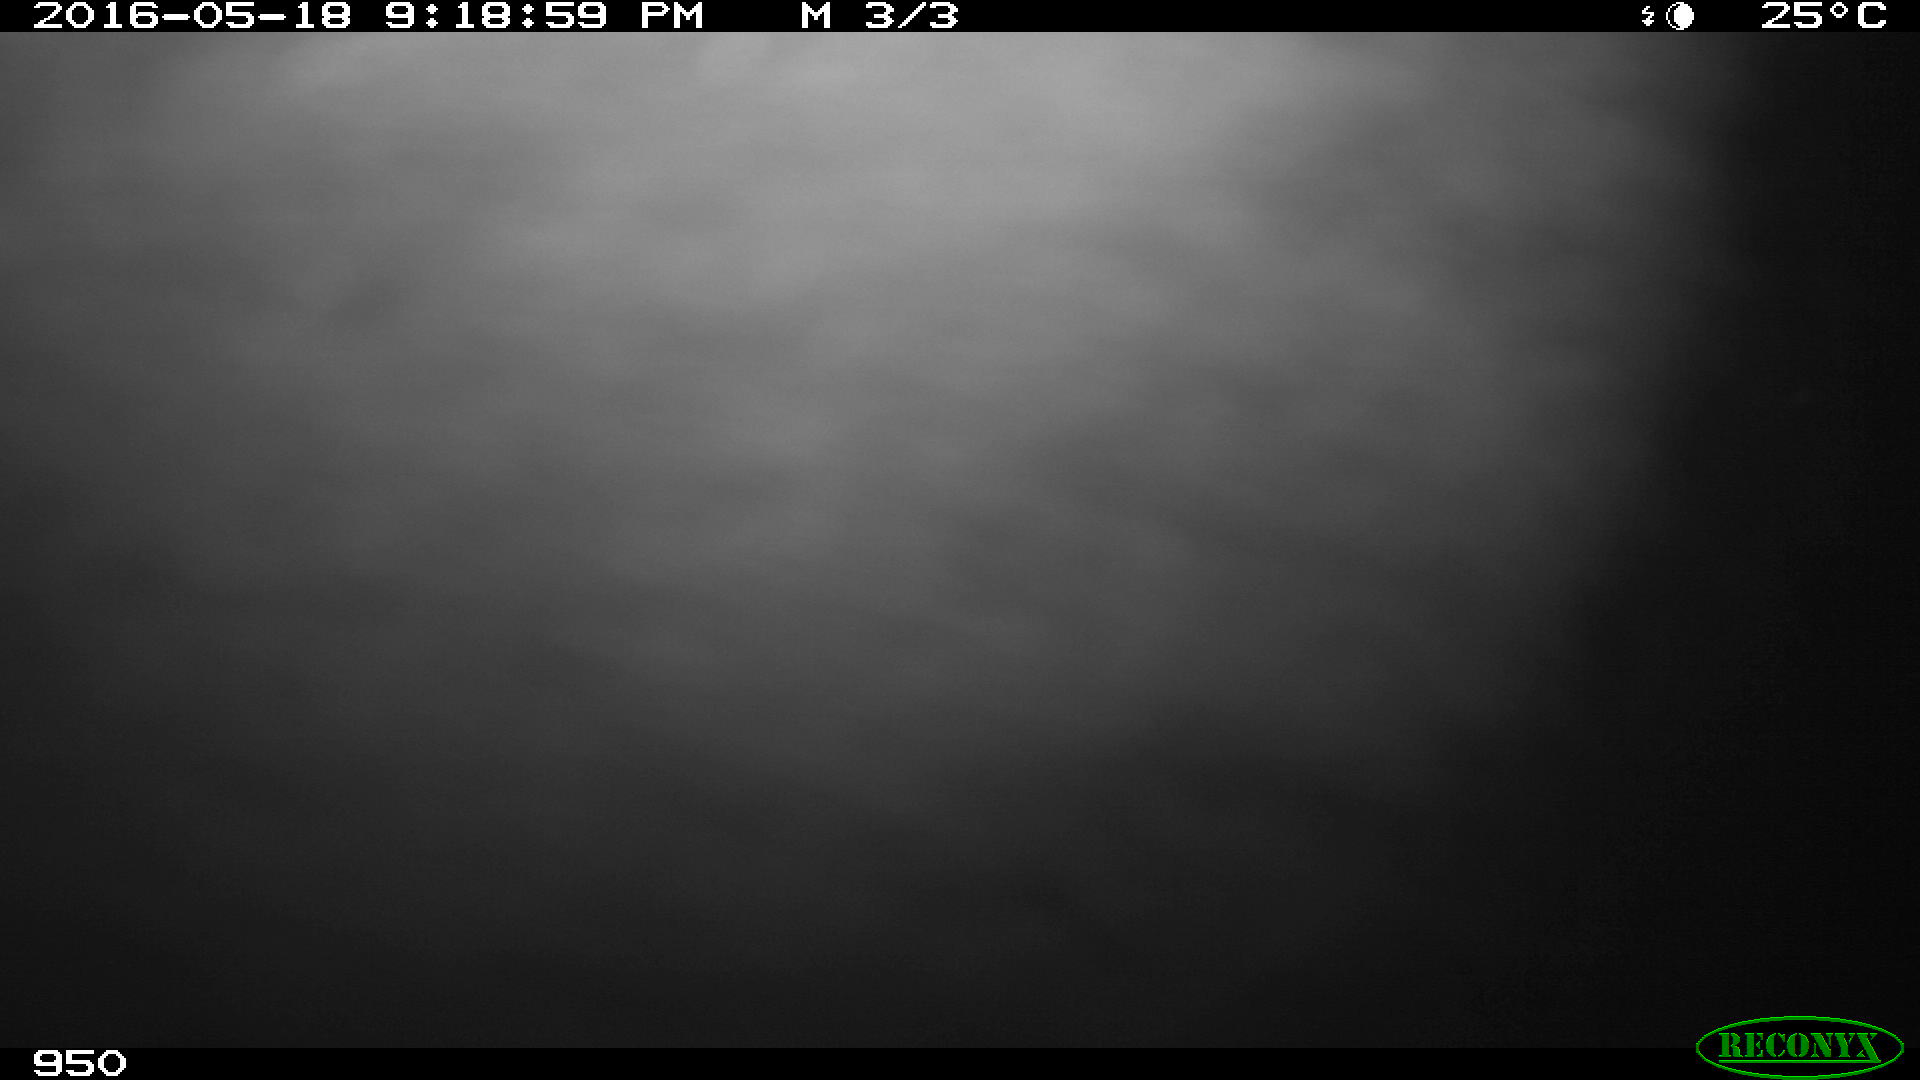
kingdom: Animalia
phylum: Chordata
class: Mammalia
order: Perissodactyla
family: Equidae
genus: Equus
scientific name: Equus caballus
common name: Horse
